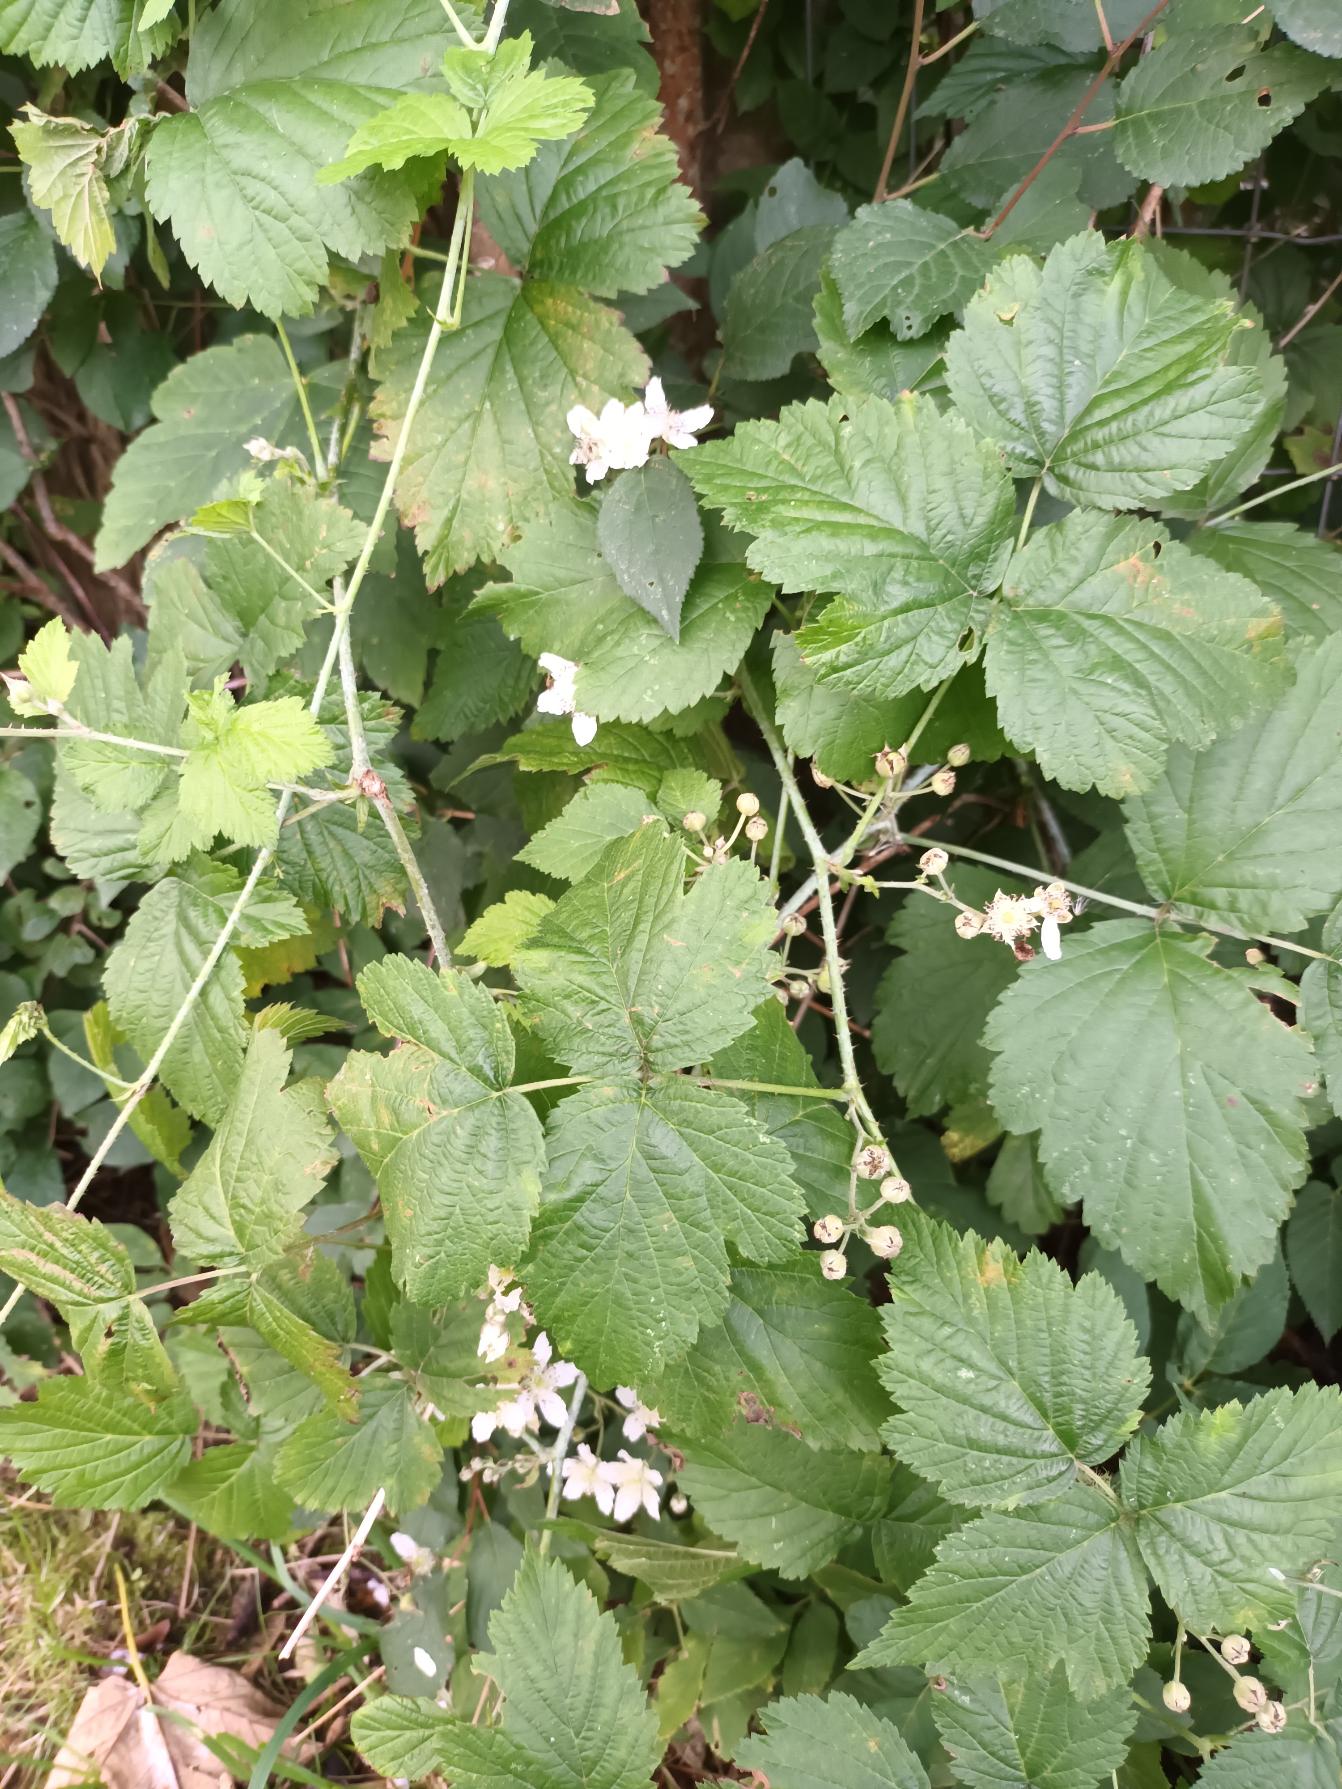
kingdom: Plantae
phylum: Tracheophyta
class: Magnoliopsida
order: Rosales
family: Rosaceae
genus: Rubus
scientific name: Rubus caesius
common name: Korbær
